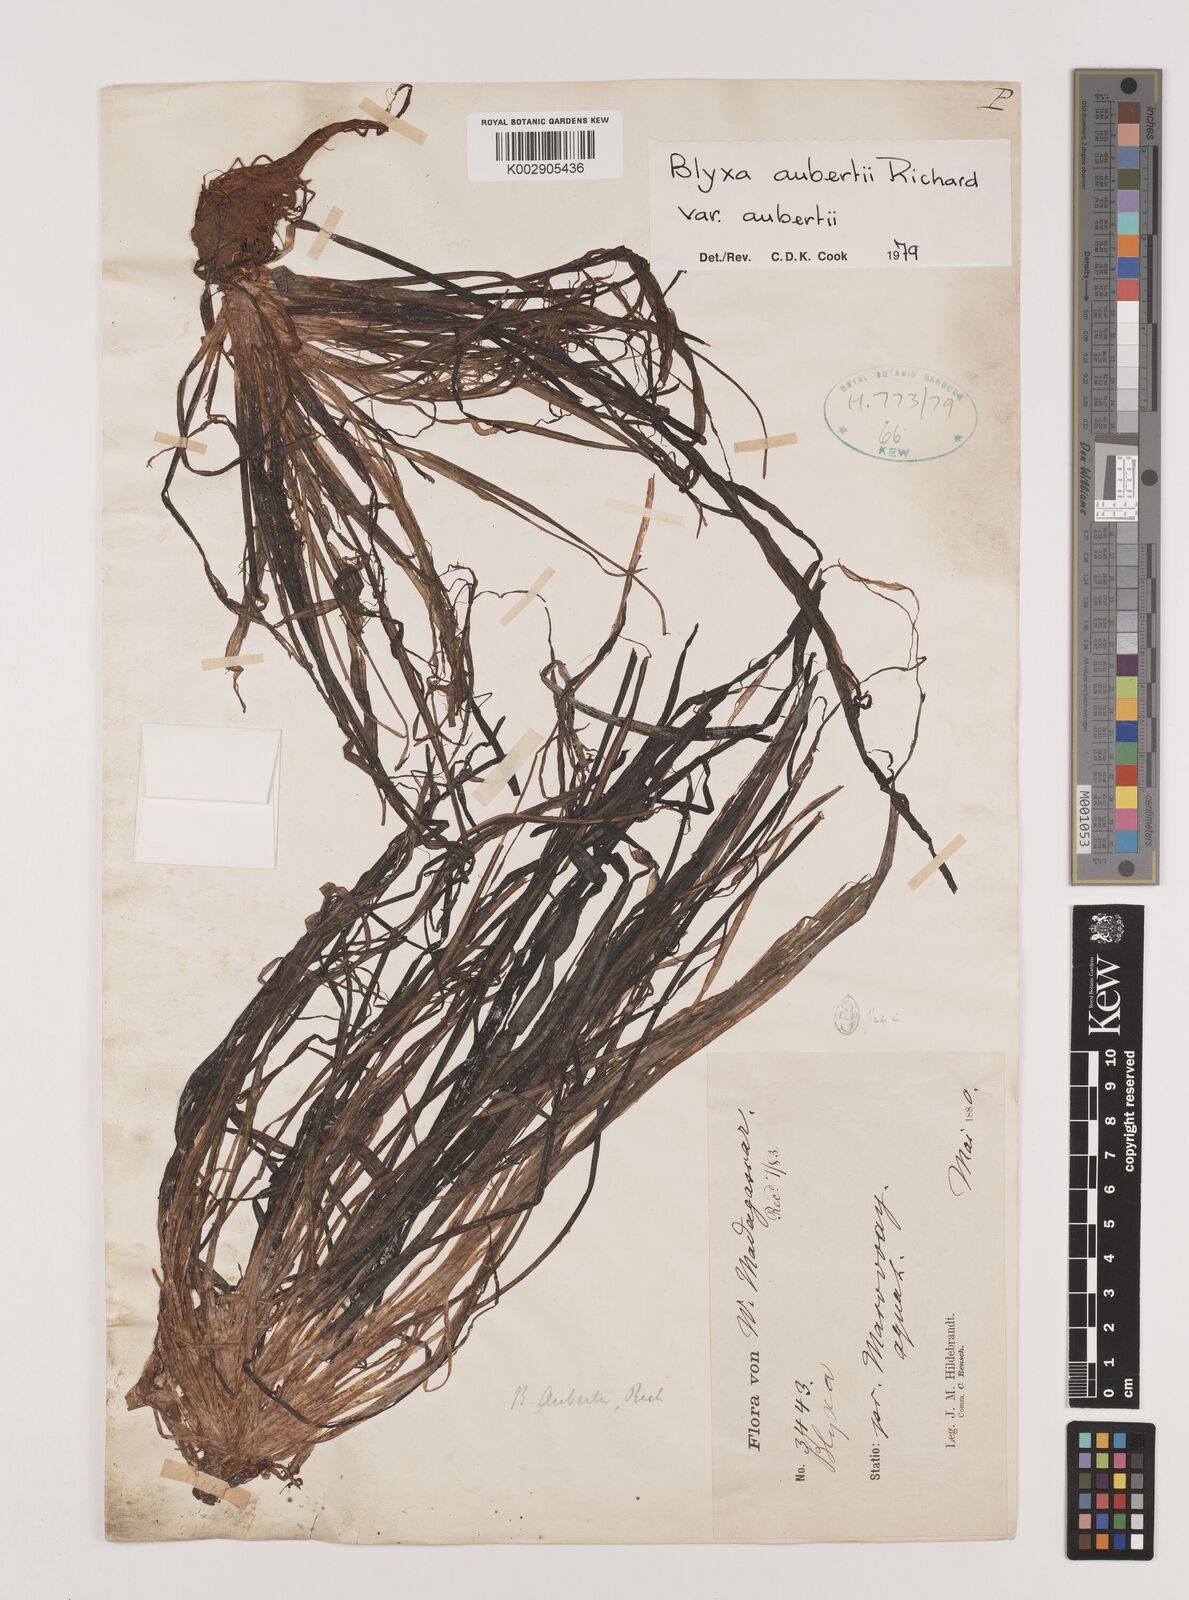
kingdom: Plantae
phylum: Tracheophyta
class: Liliopsida
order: Alismatales
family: Hydrocharitaceae
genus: Blyxa
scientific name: Blyxa aubertii
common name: Roundfruit blyxa
